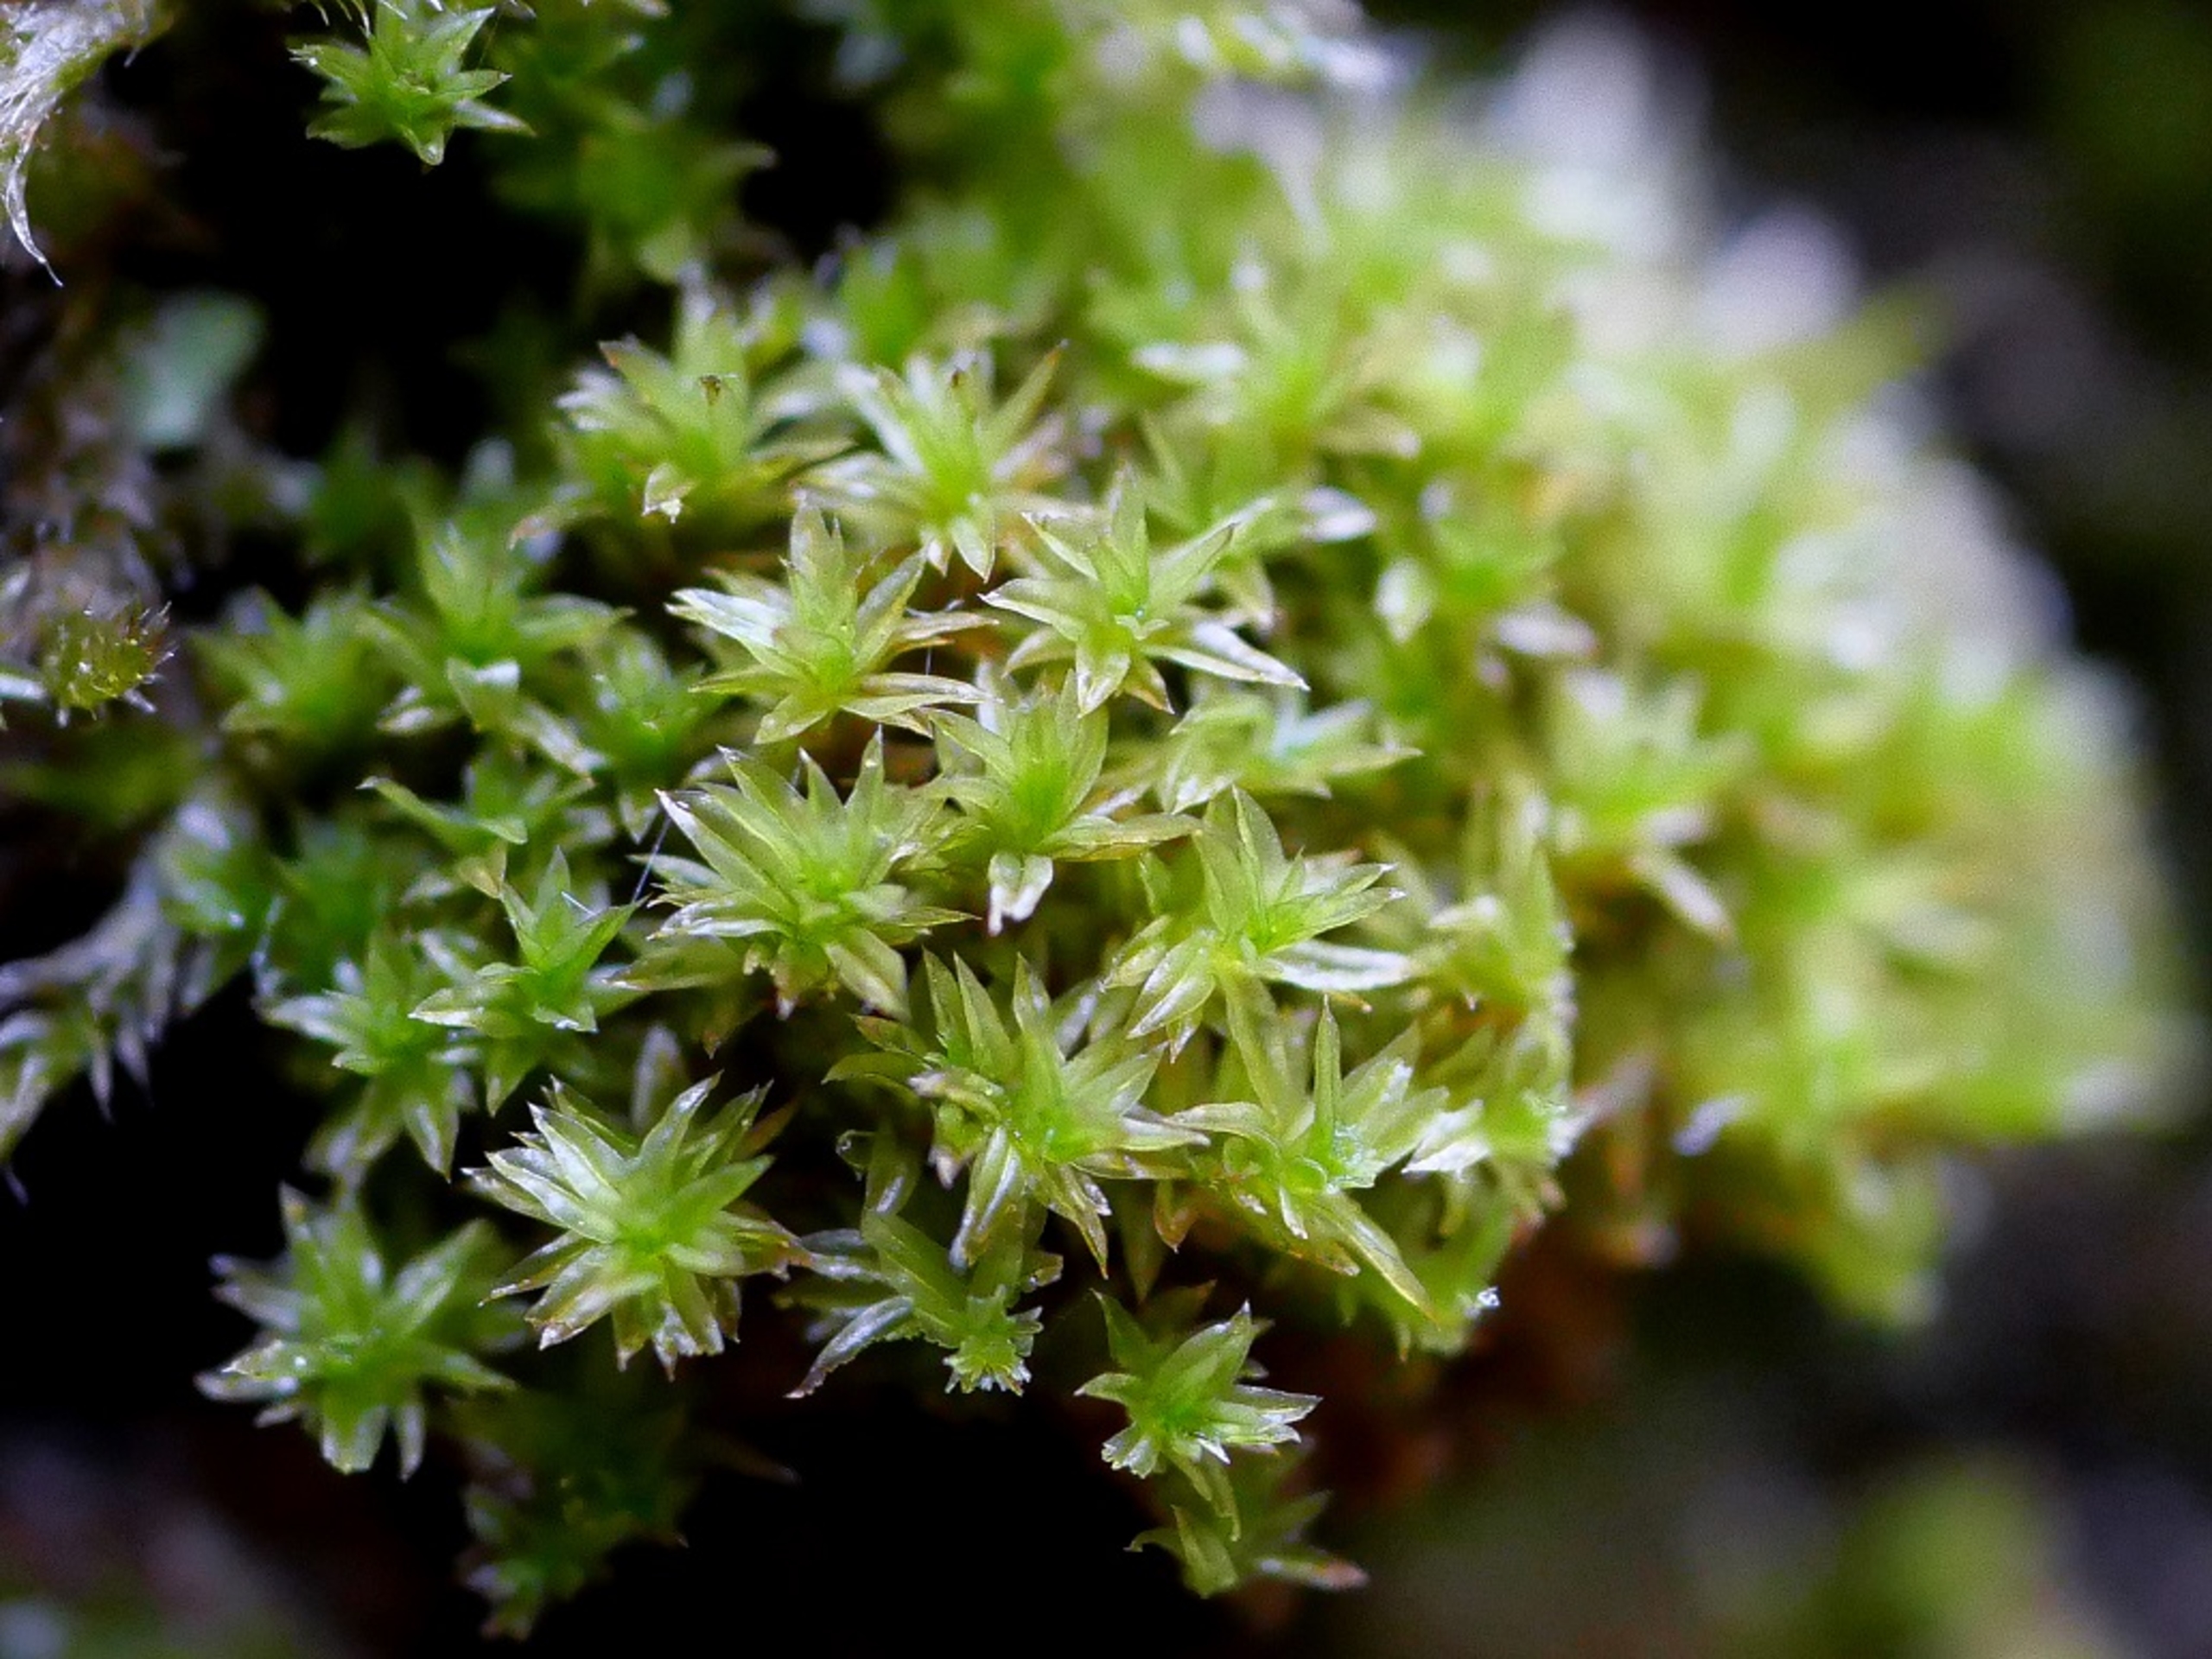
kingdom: Plantae
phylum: Bryophyta
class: Bryopsida
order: Orthotrichales
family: Orthotrichaceae
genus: Zygodon
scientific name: Zygodon conoideus
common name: Tand-køllemos
